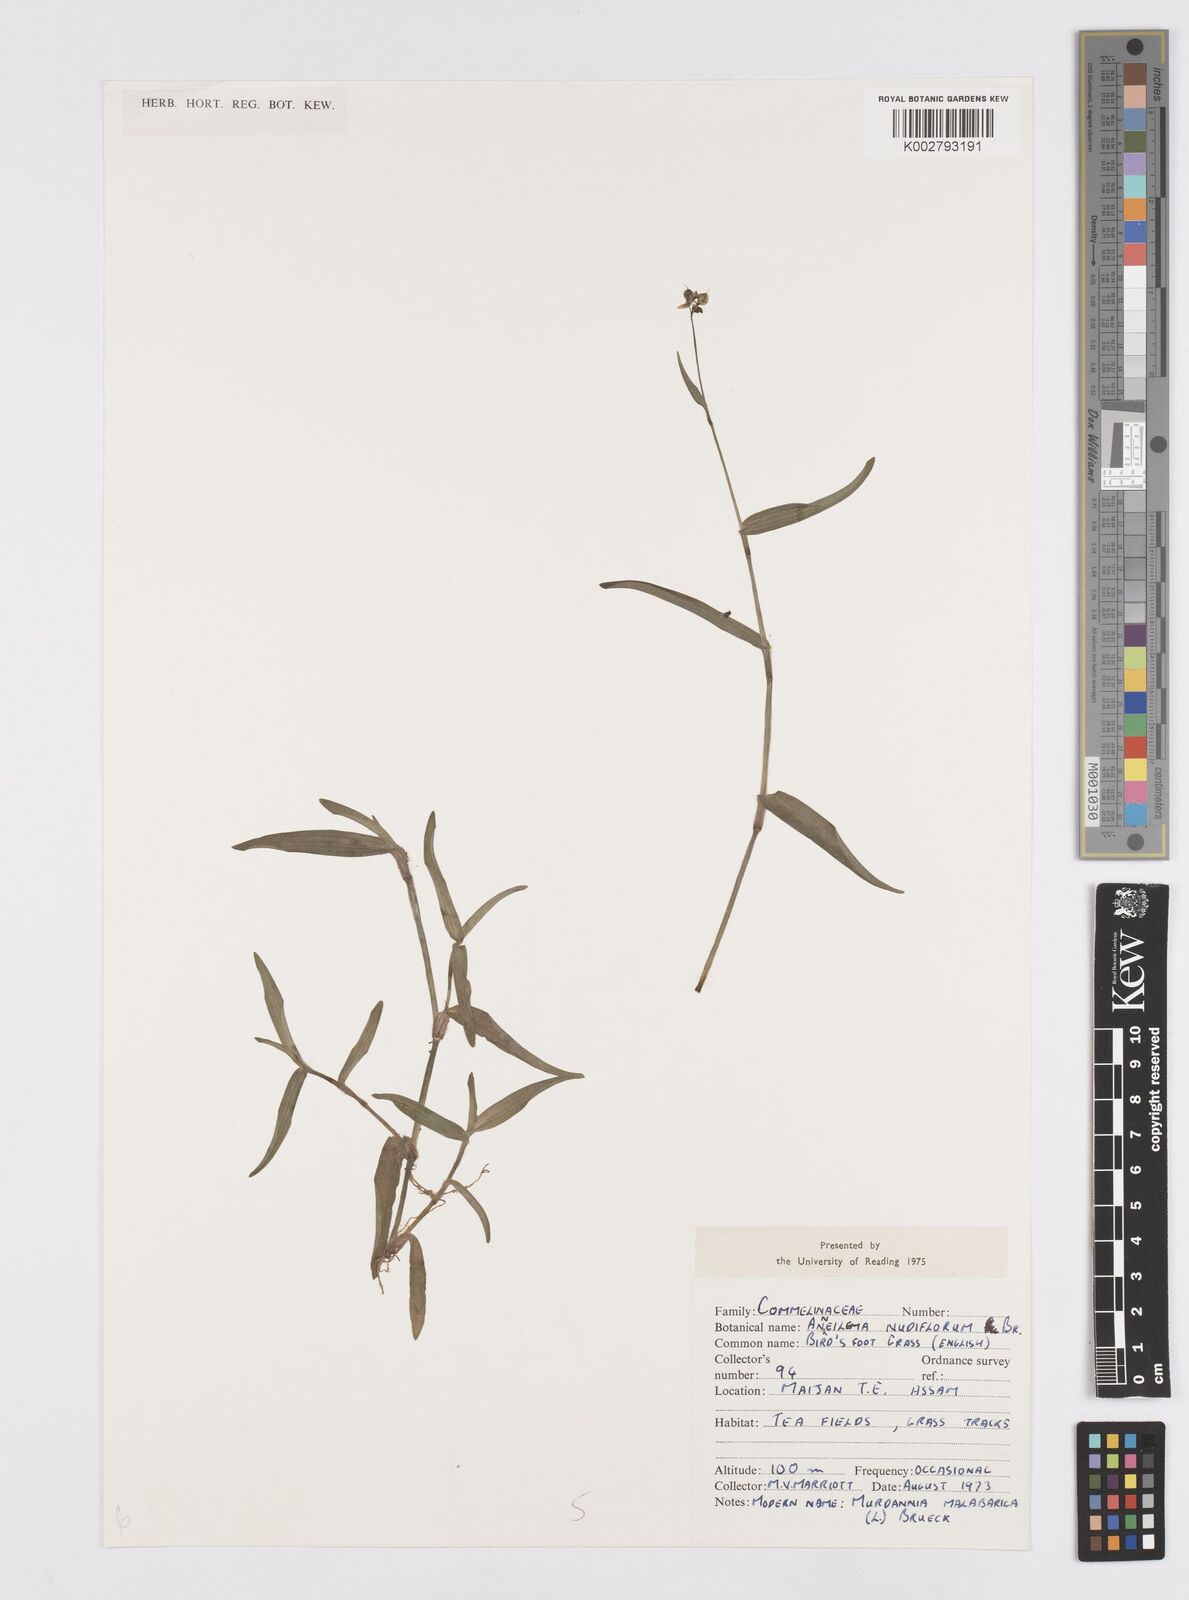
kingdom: Plantae
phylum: Tracheophyta
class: Liliopsida
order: Commelinales
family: Commelinaceae
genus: Murdannia
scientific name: Murdannia nudiflora
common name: Nakedstem dewflower
